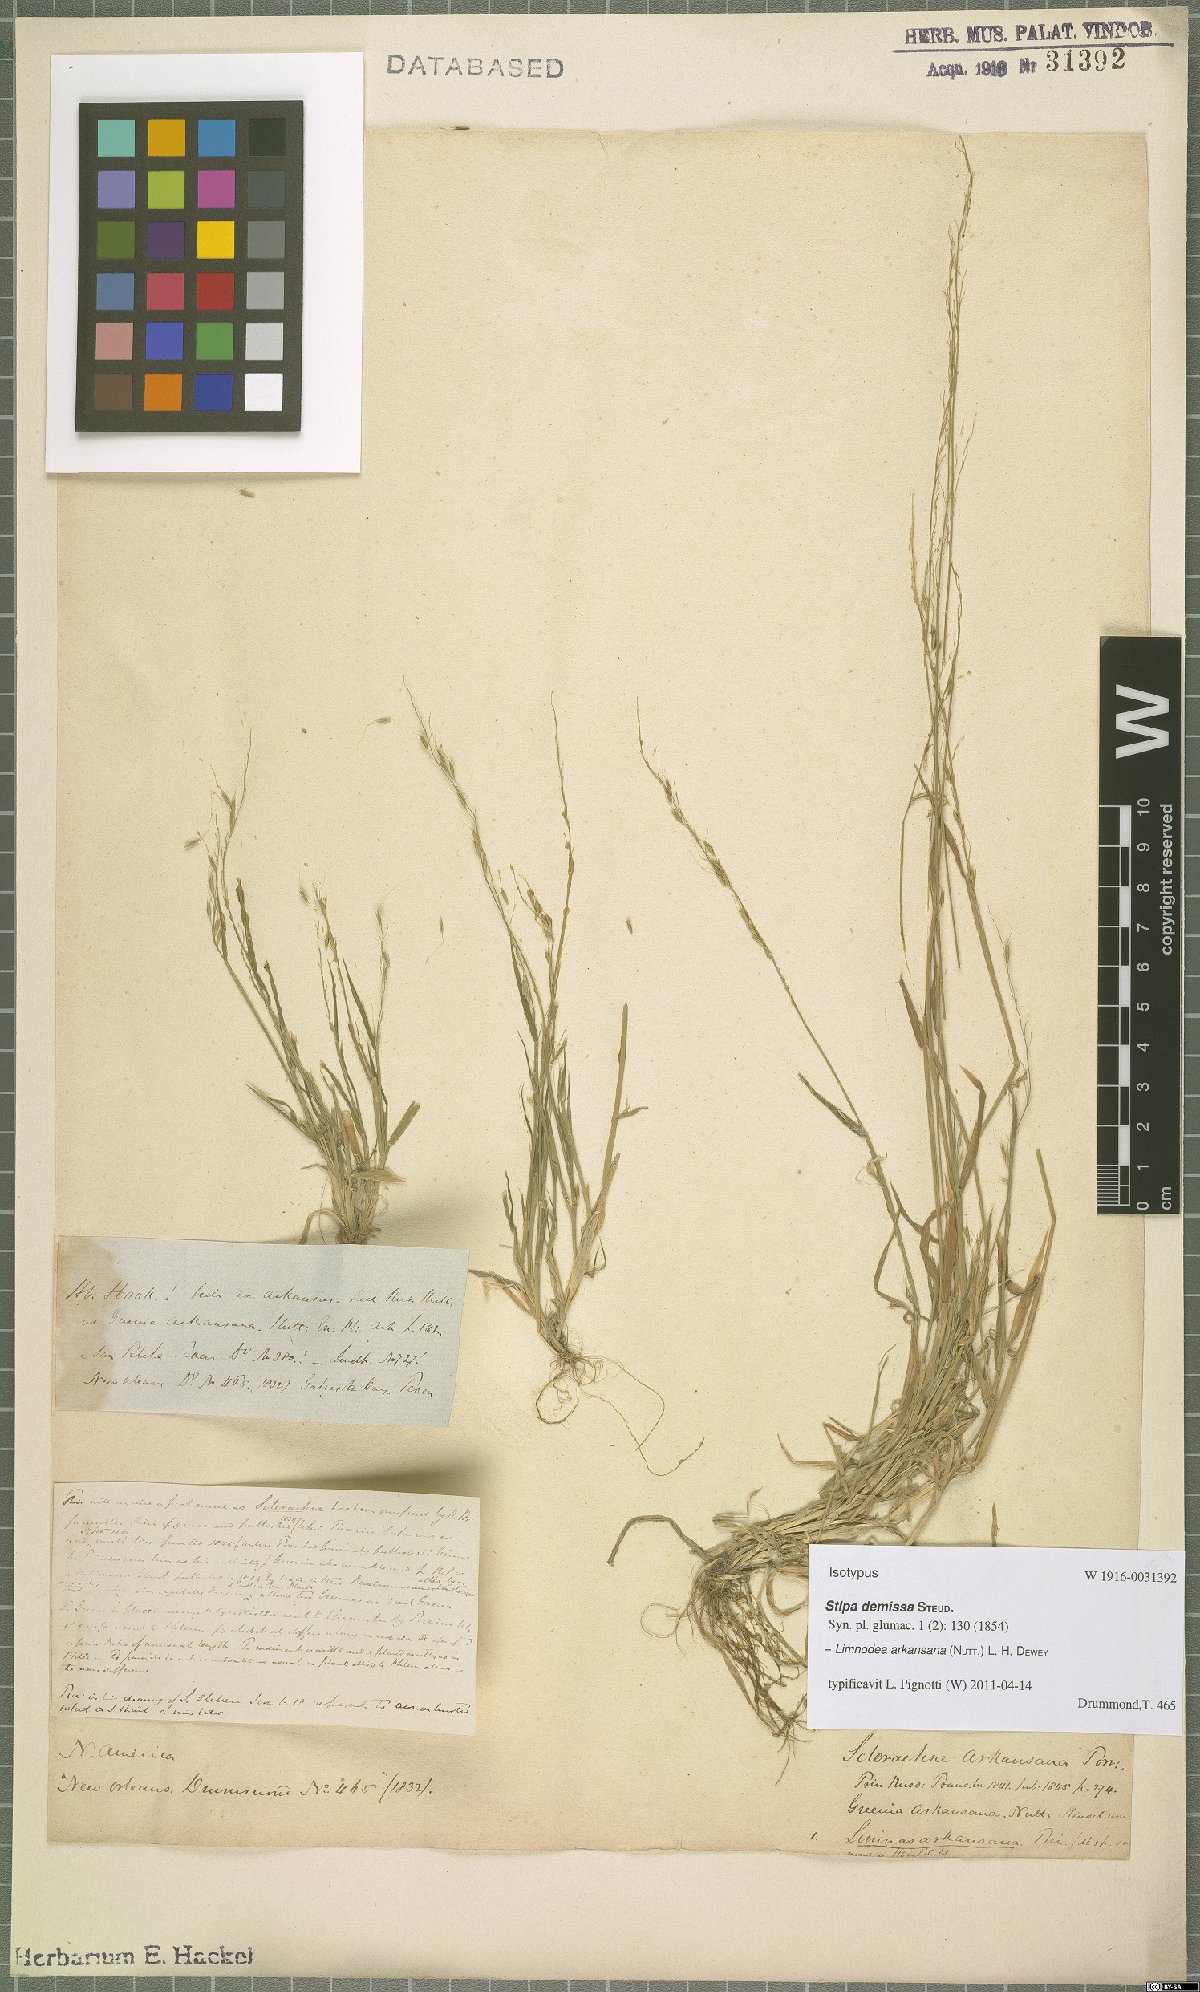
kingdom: Plantae
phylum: Tracheophyta
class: Liliopsida
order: Poales
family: Poaceae
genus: Limnodea
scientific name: Limnodea arkansana
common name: Ozark-grass
